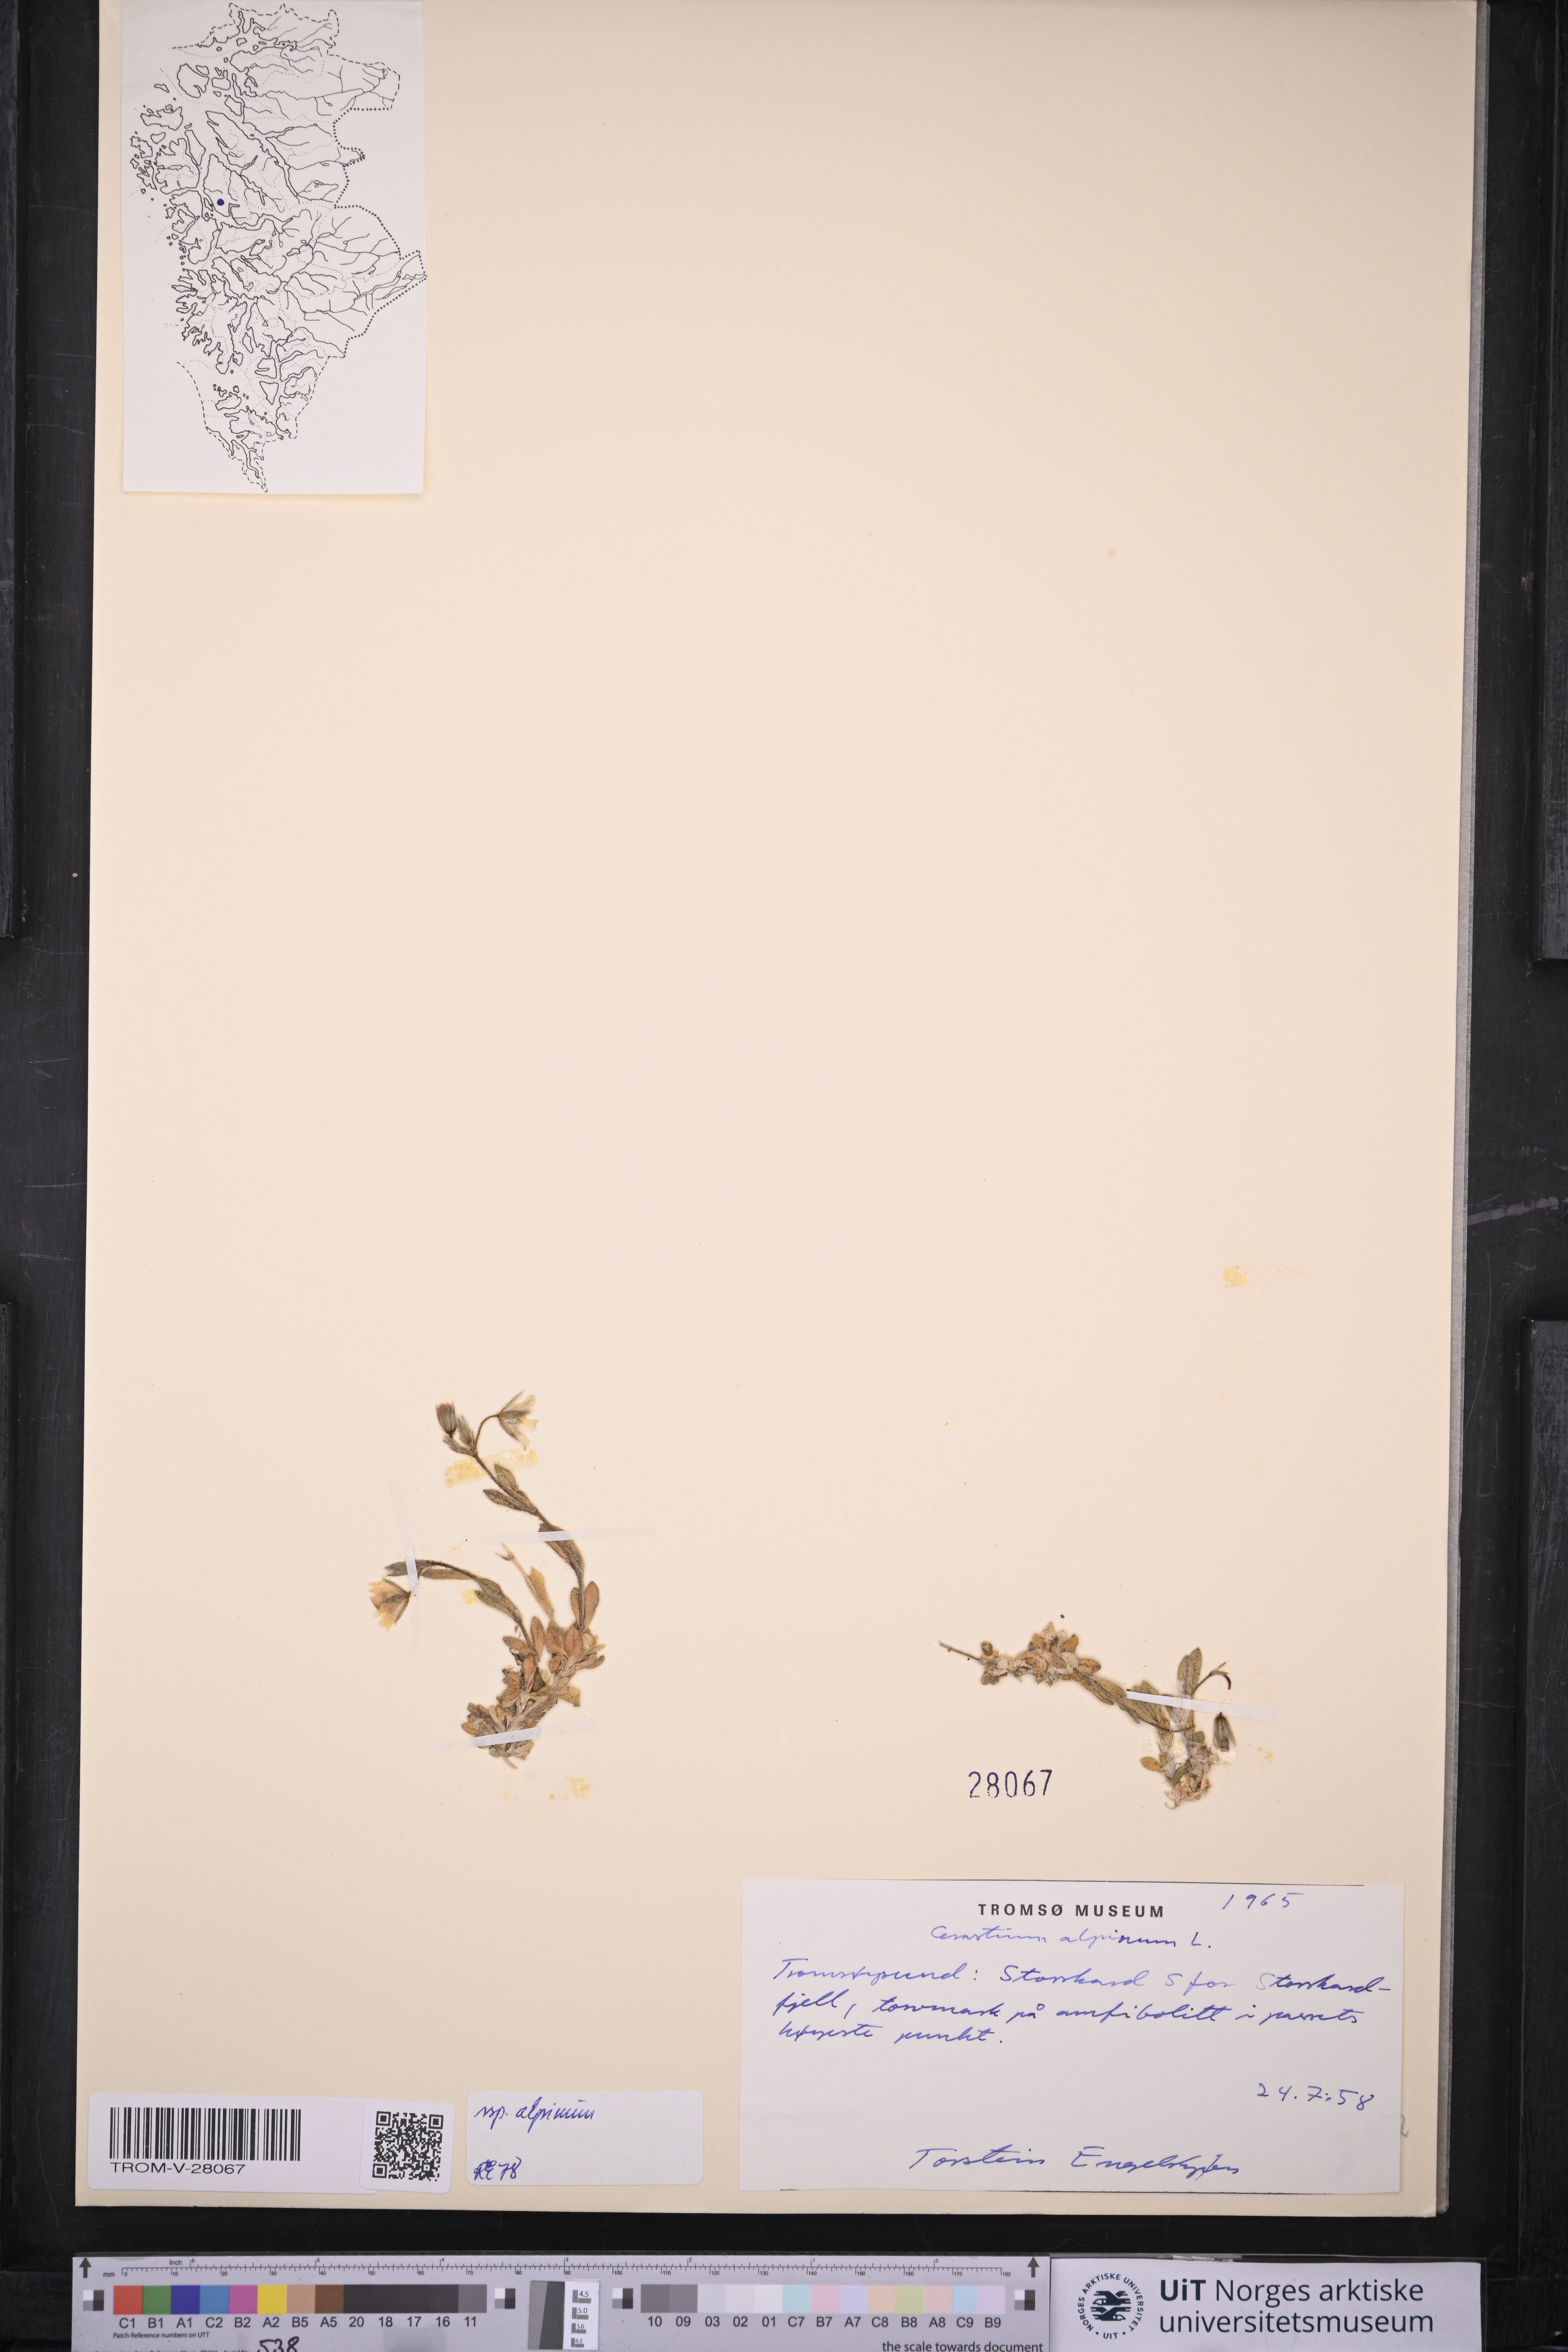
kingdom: Plantae
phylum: Tracheophyta
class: Magnoliopsida
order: Caryophyllales
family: Caryophyllaceae
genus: Cerastium
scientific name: Cerastium alpinum
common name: Alpine mouse-ear
